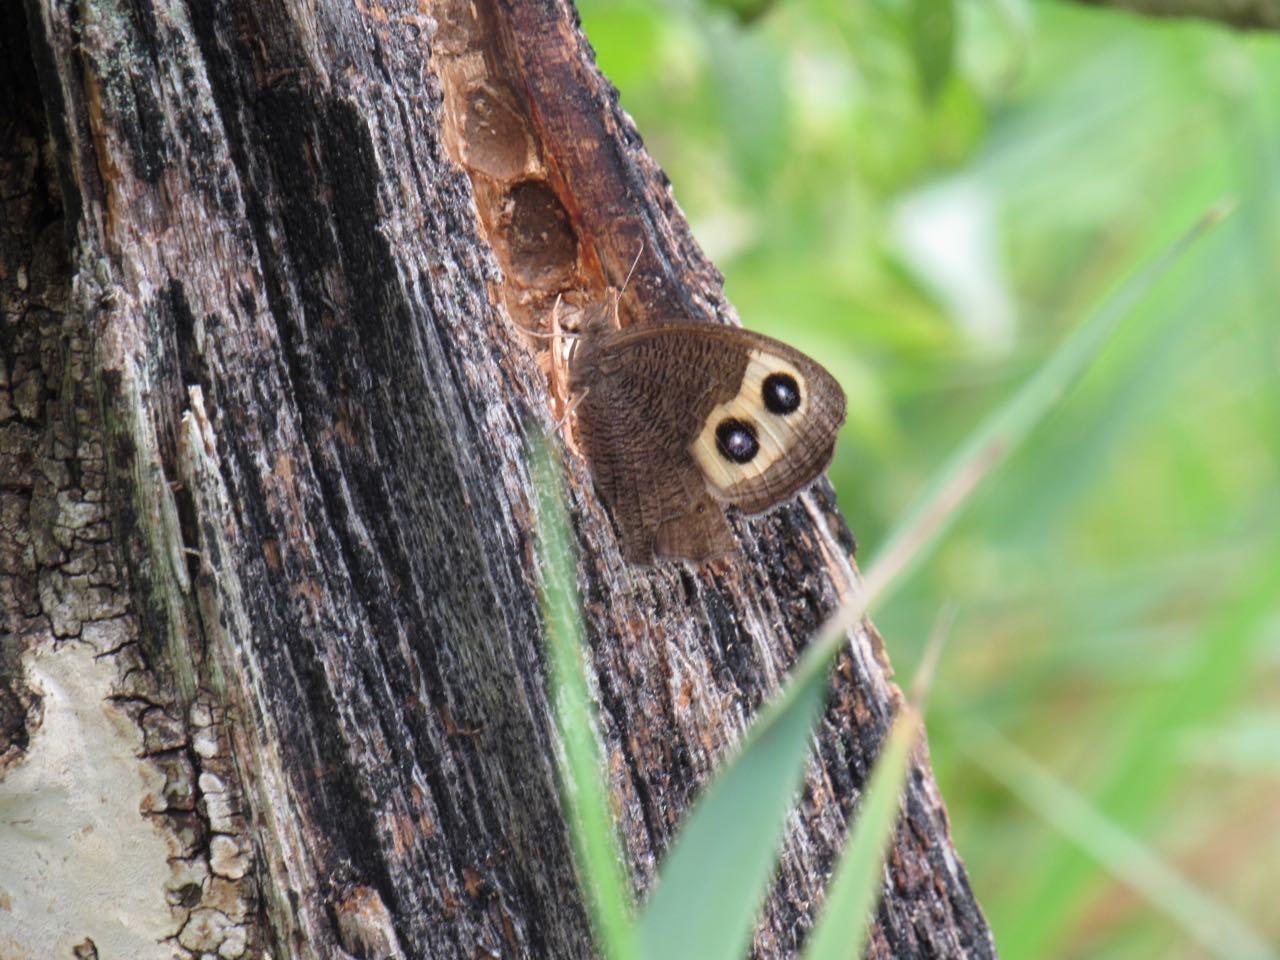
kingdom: Animalia
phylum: Arthropoda
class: Insecta
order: Lepidoptera
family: Nymphalidae
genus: Cercyonis
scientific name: Cercyonis pegala
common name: Common Wood-Nymph
